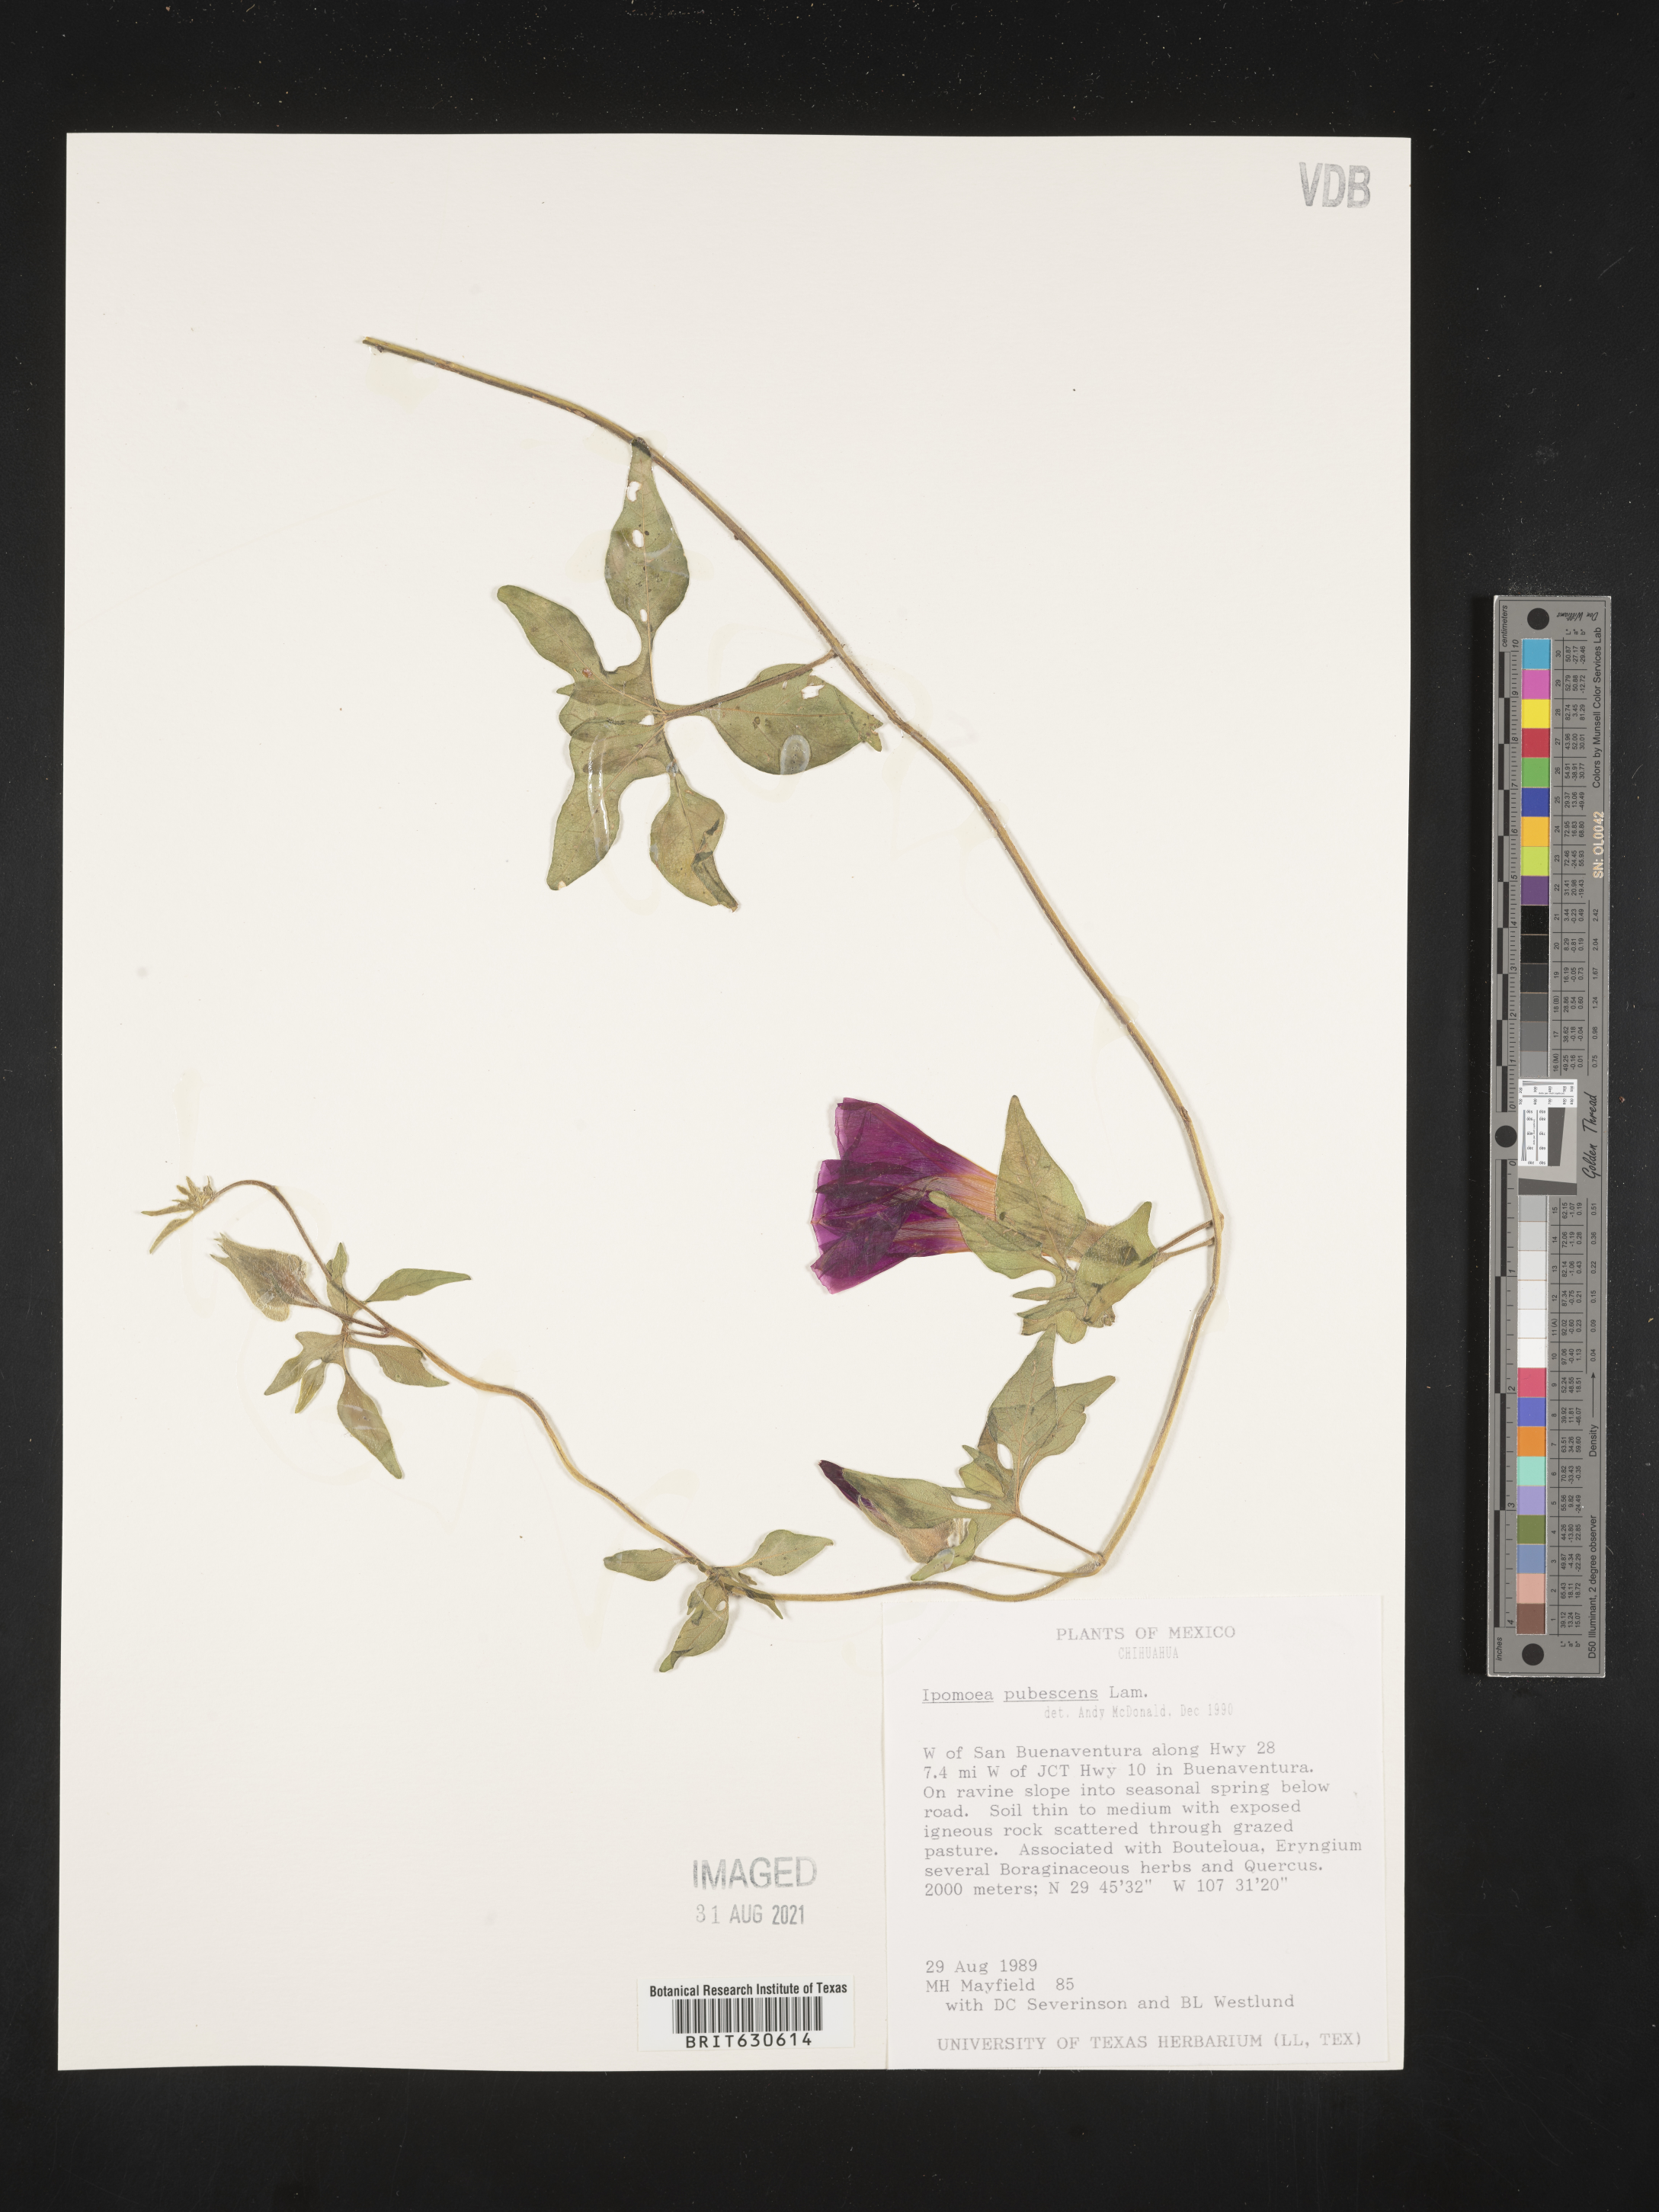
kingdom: Plantae
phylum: Tracheophyta
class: Magnoliopsida
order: Solanales
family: Convolvulaceae
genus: Ipomoea
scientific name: Ipomoea
